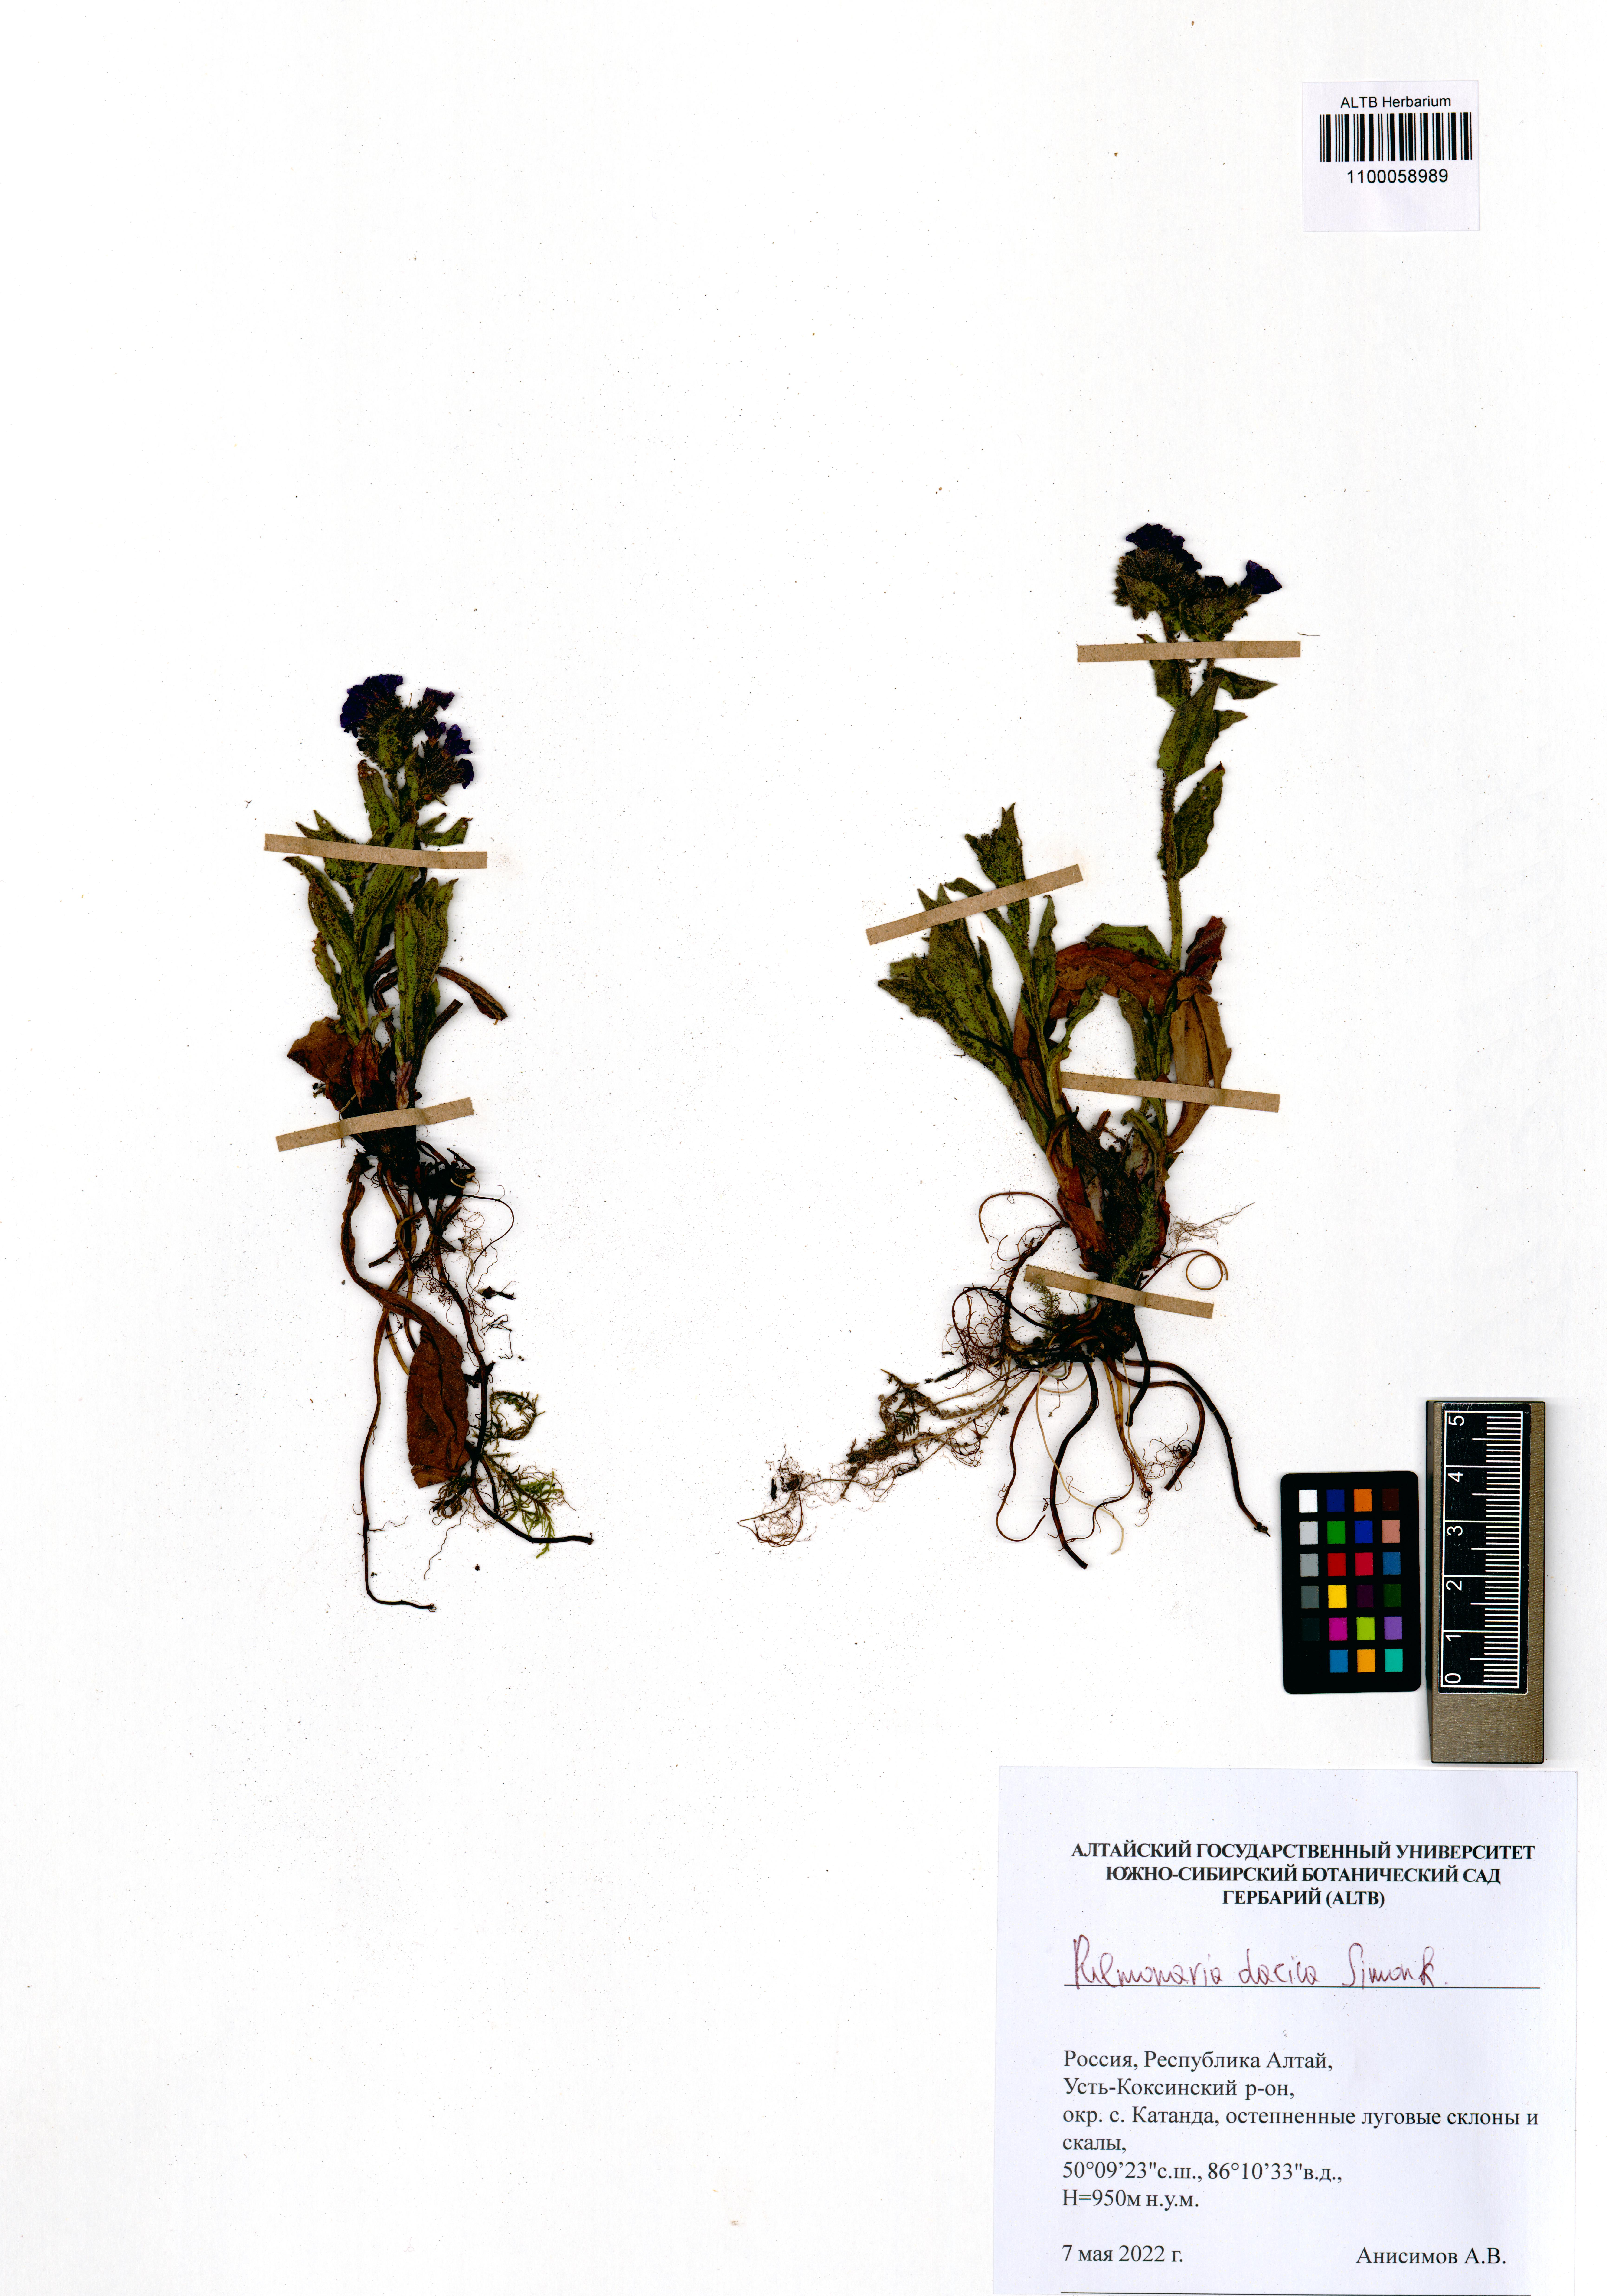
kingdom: Plantae
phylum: Tracheophyta
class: Magnoliopsida
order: Boraginales
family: Boraginaceae
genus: Pulmonaria
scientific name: Pulmonaria dacica
